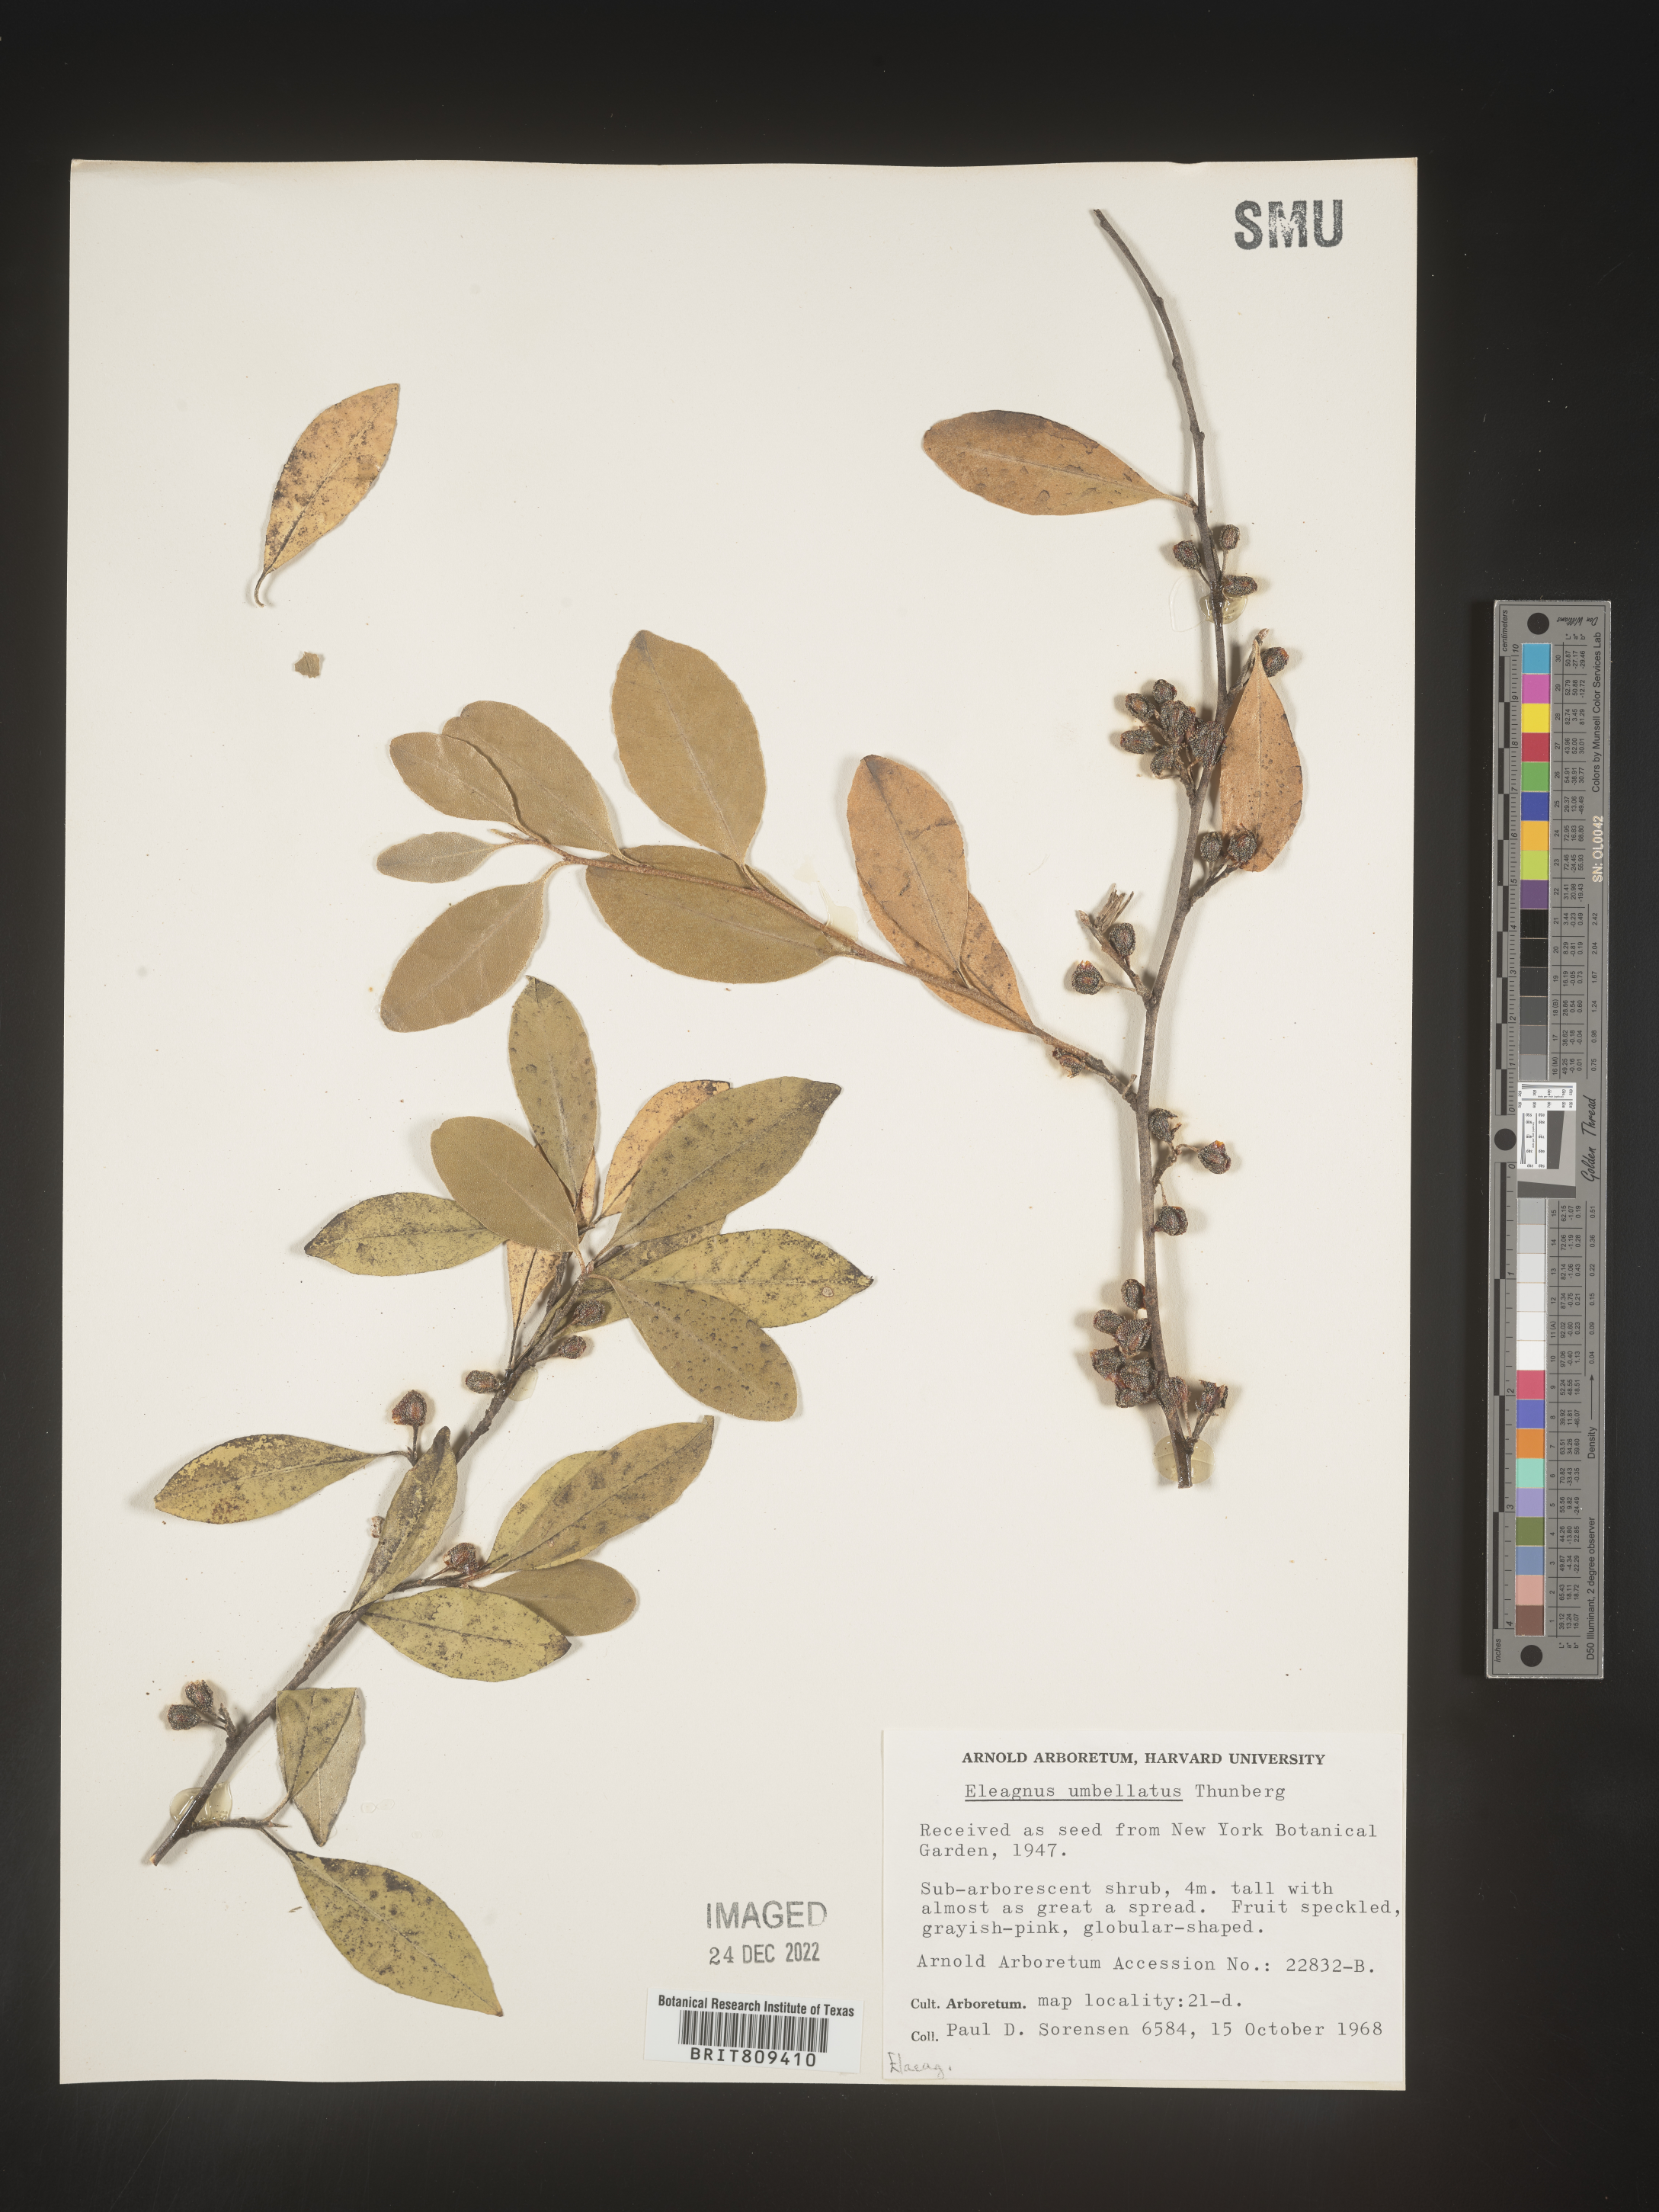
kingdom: Plantae
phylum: Tracheophyta
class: Magnoliopsida
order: Rosales
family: Elaeagnaceae
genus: Elaeagnus
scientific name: Elaeagnus
